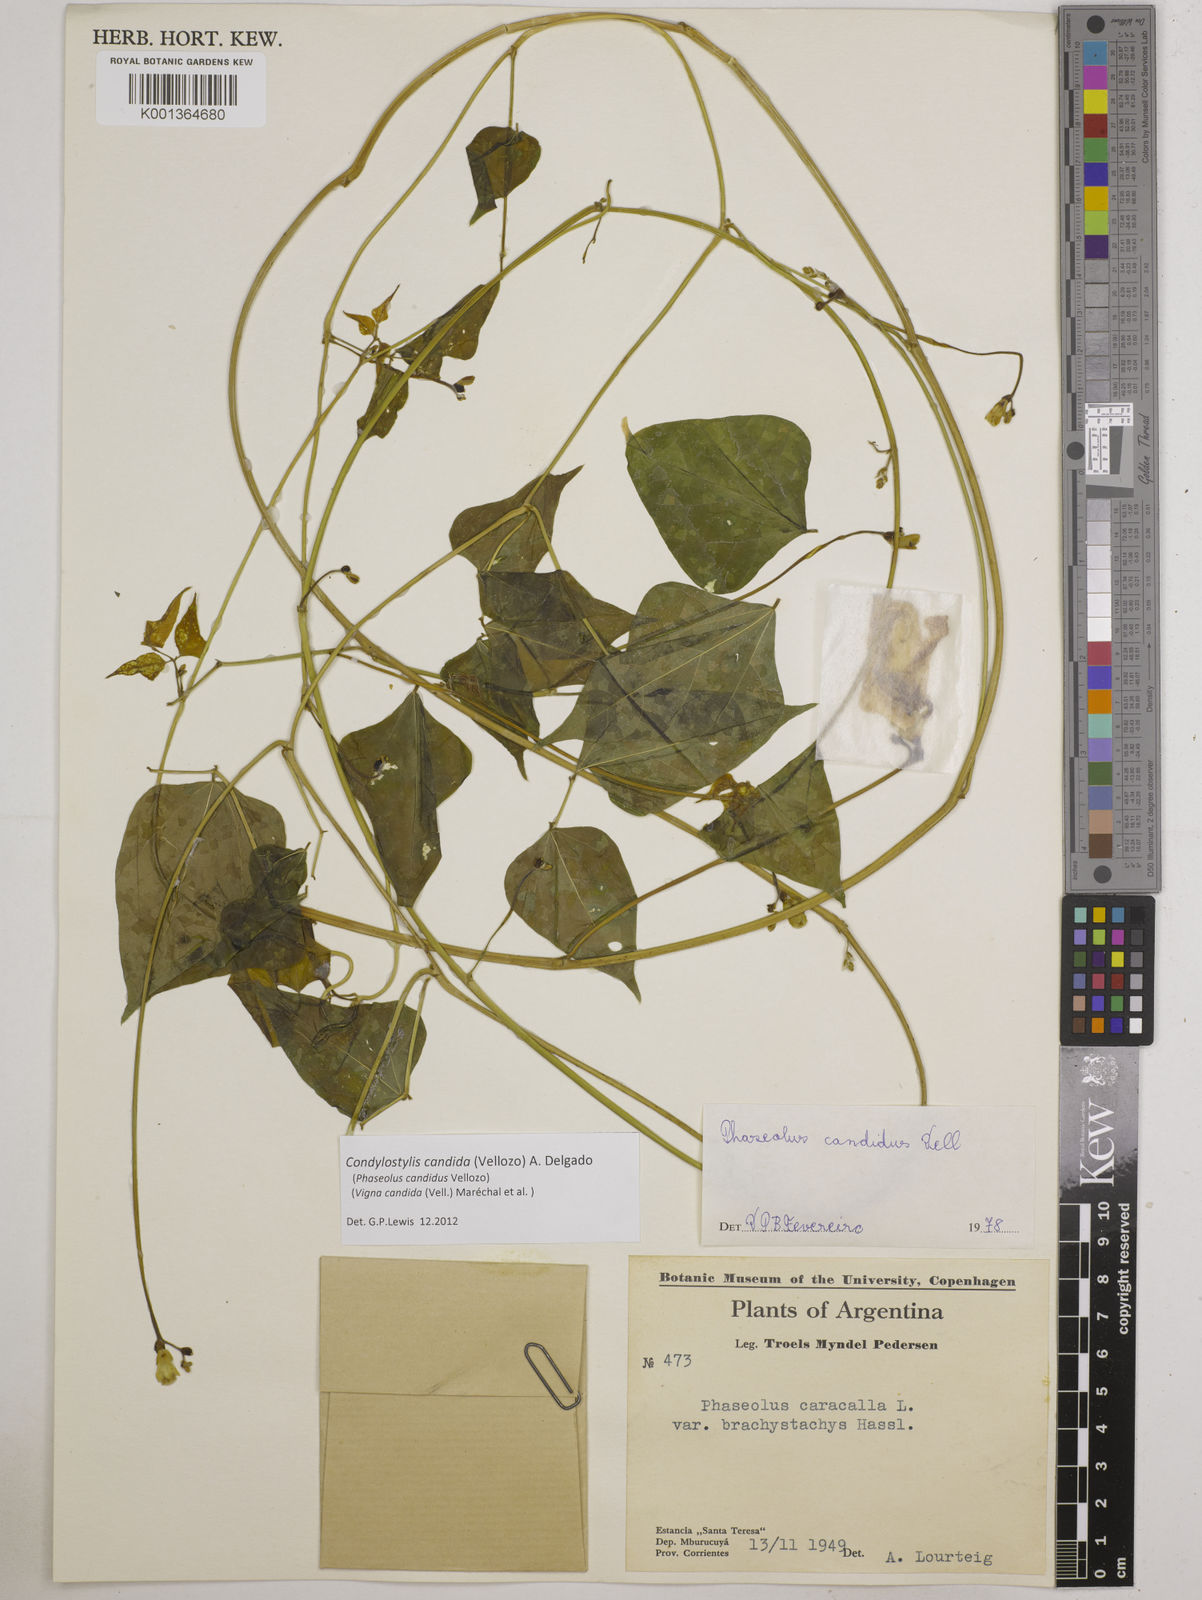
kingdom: Plantae
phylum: Tracheophyta
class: Magnoliopsida
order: Fabales
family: Fabaceae
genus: Condylostylis
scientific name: Condylostylis candida
